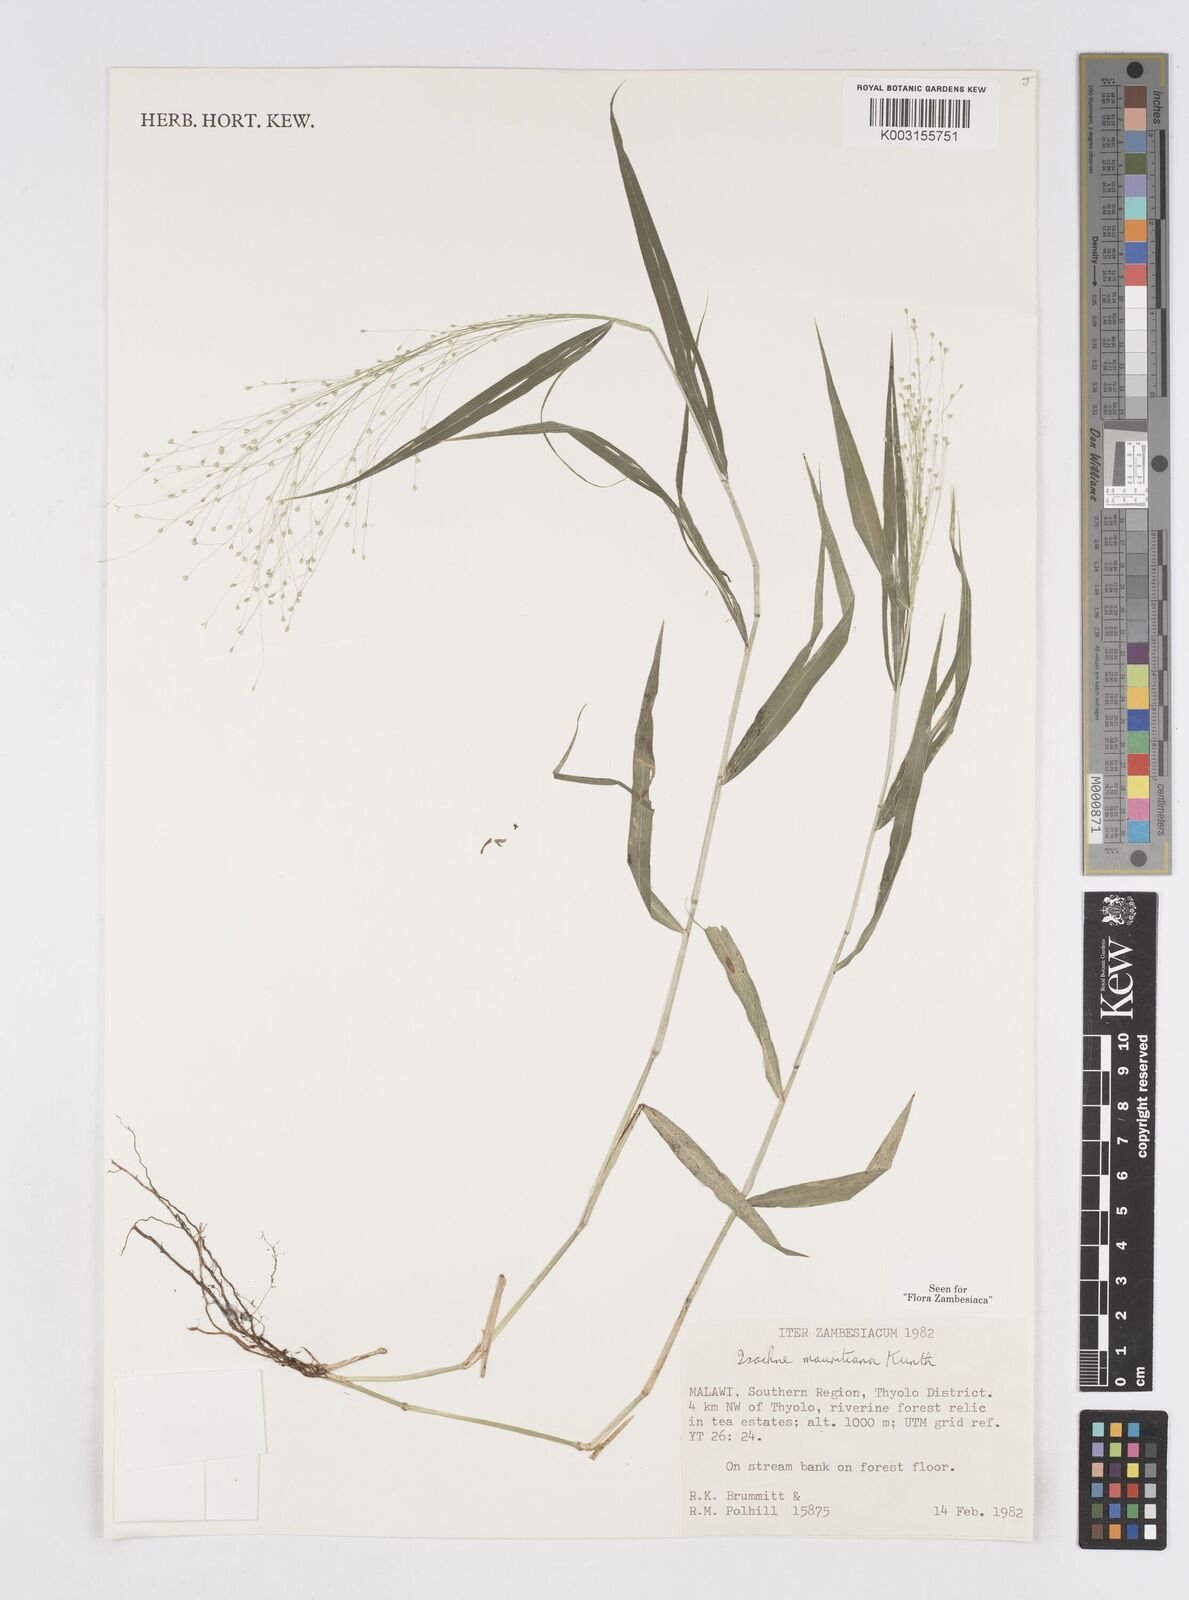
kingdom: Plantae
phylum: Tracheophyta
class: Liliopsida
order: Poales
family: Poaceae
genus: Isachne
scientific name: Isachne mauritiana
